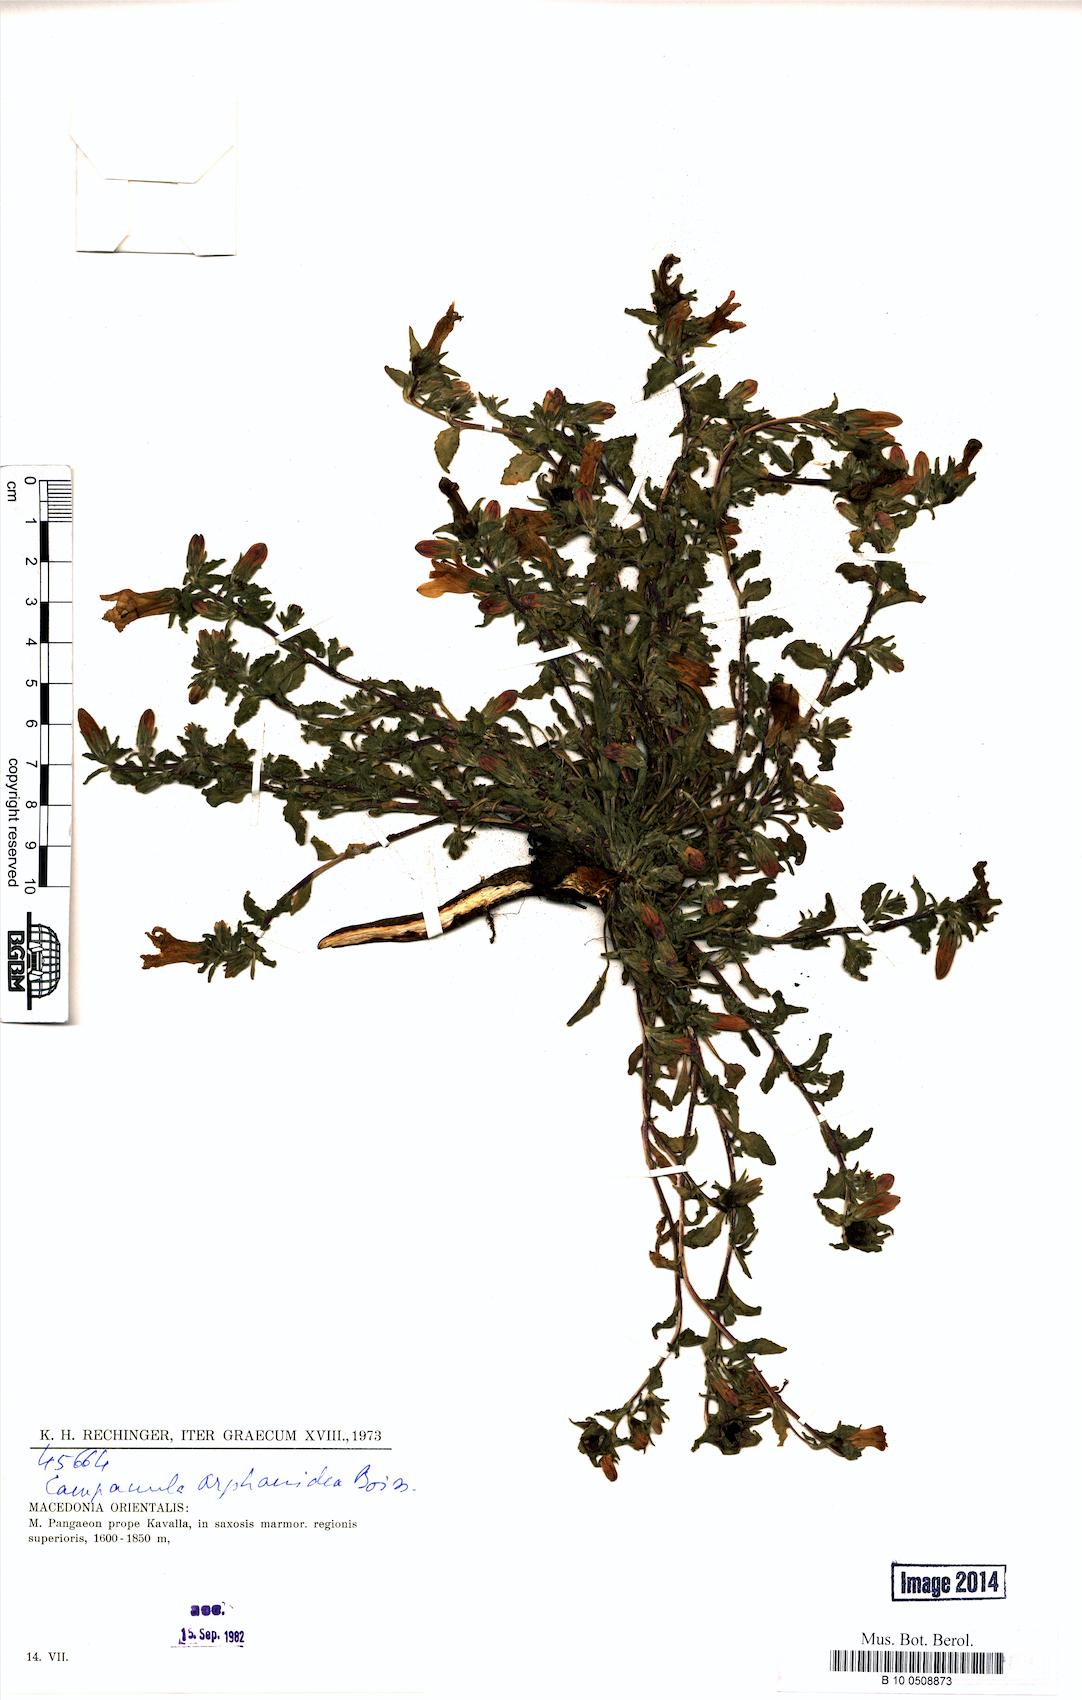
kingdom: Plantae
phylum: Tracheophyta
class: Magnoliopsida
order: Asterales
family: Campanulaceae
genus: Campanula
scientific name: Campanula orphanidea
